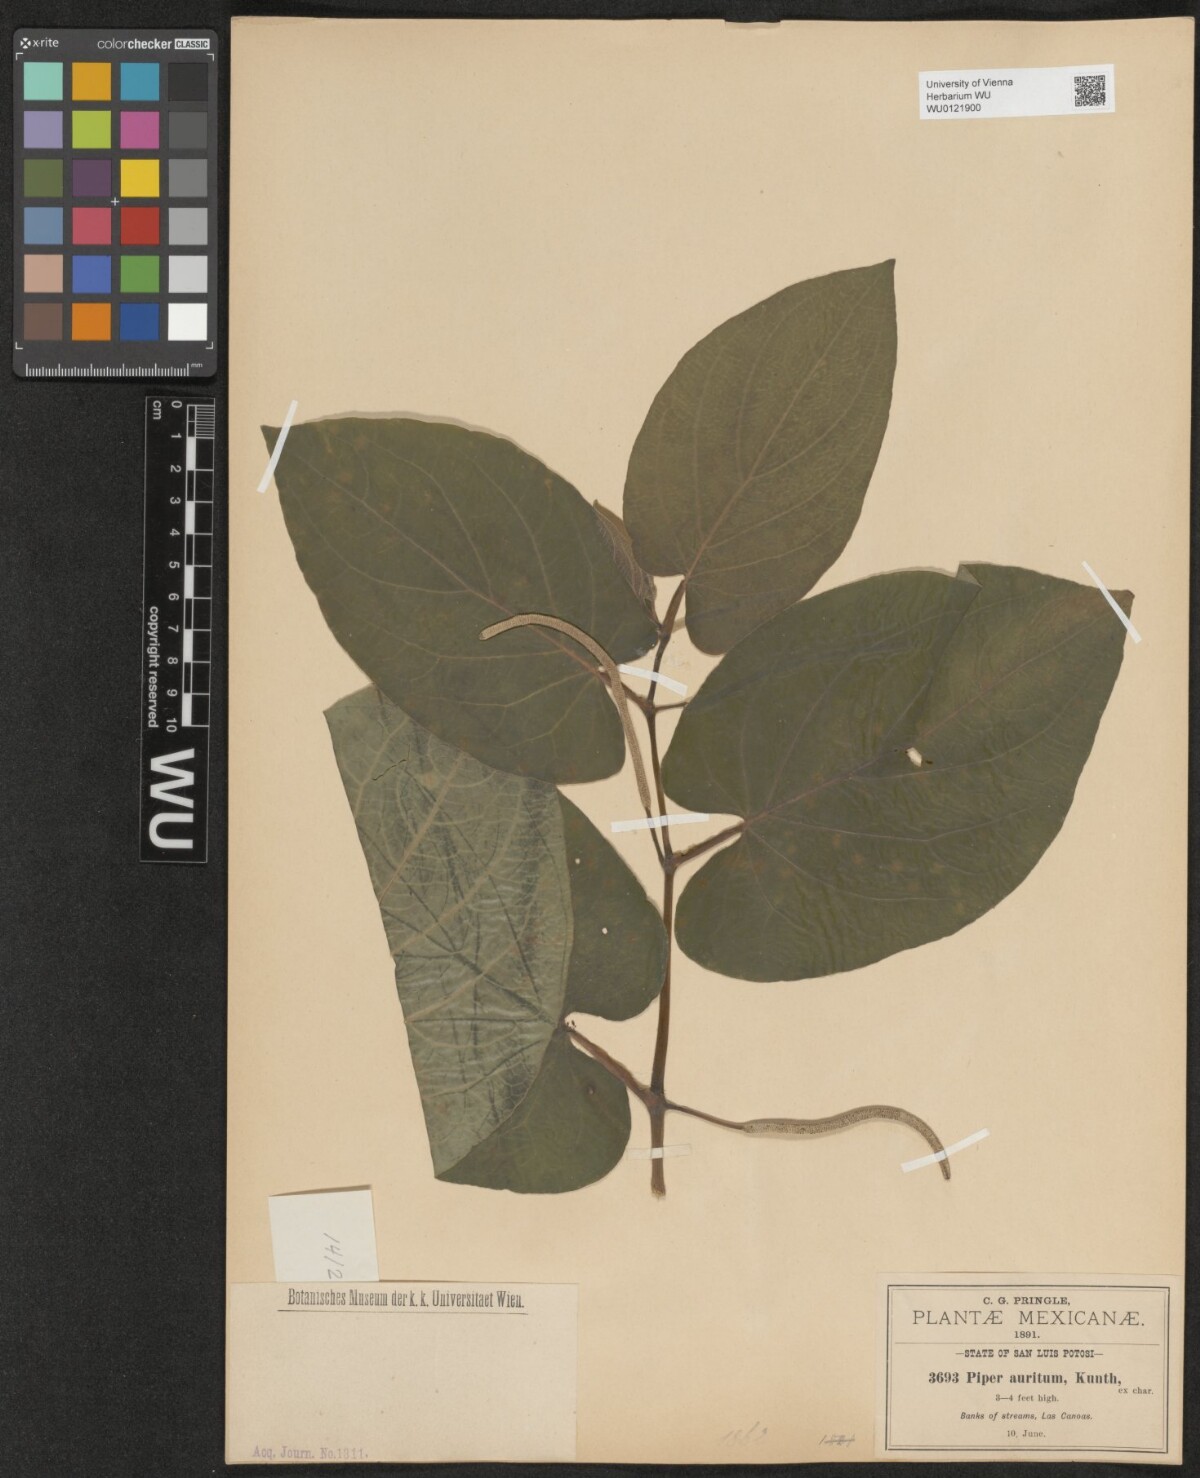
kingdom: Plantae
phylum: Tracheophyta
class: Magnoliopsida
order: Piperales
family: Piperaceae
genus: Piper
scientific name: Piper auritum
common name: Vera cruz pepper
